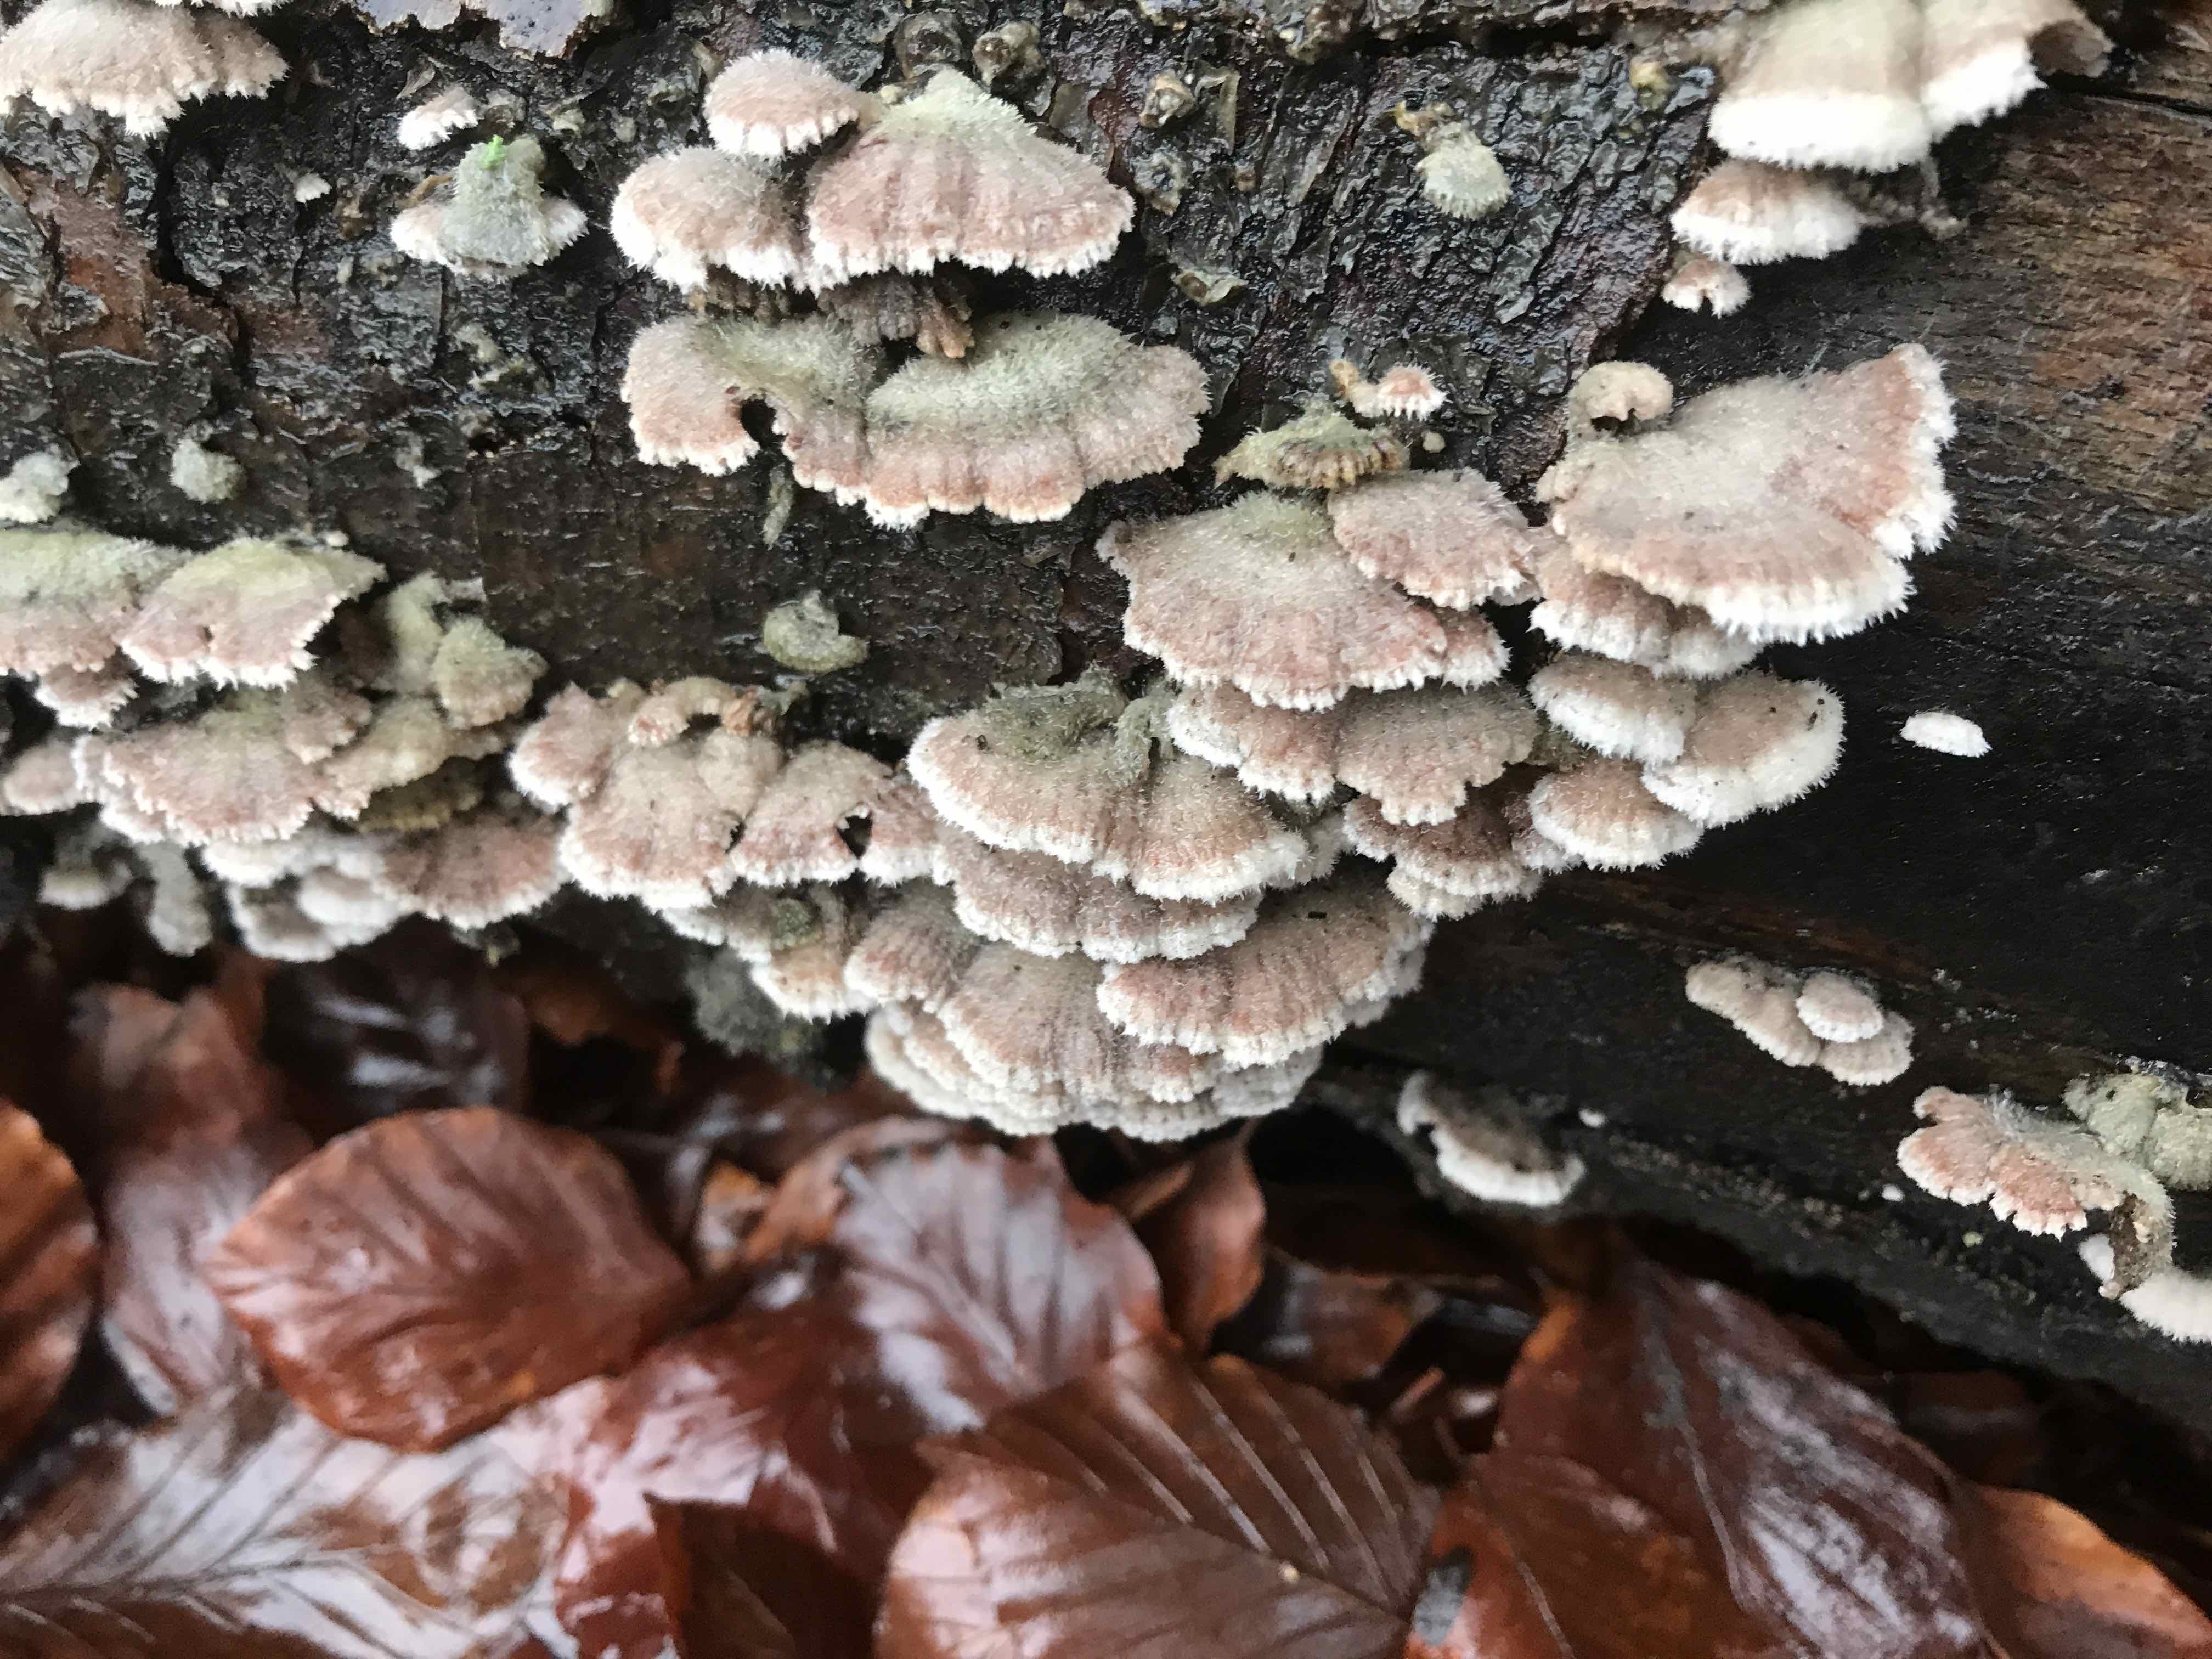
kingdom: Fungi
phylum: Basidiomycota
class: Agaricomycetes
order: Agaricales
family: Schizophyllaceae
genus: Schizophyllum
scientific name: Schizophyllum commune
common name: kløvblad
